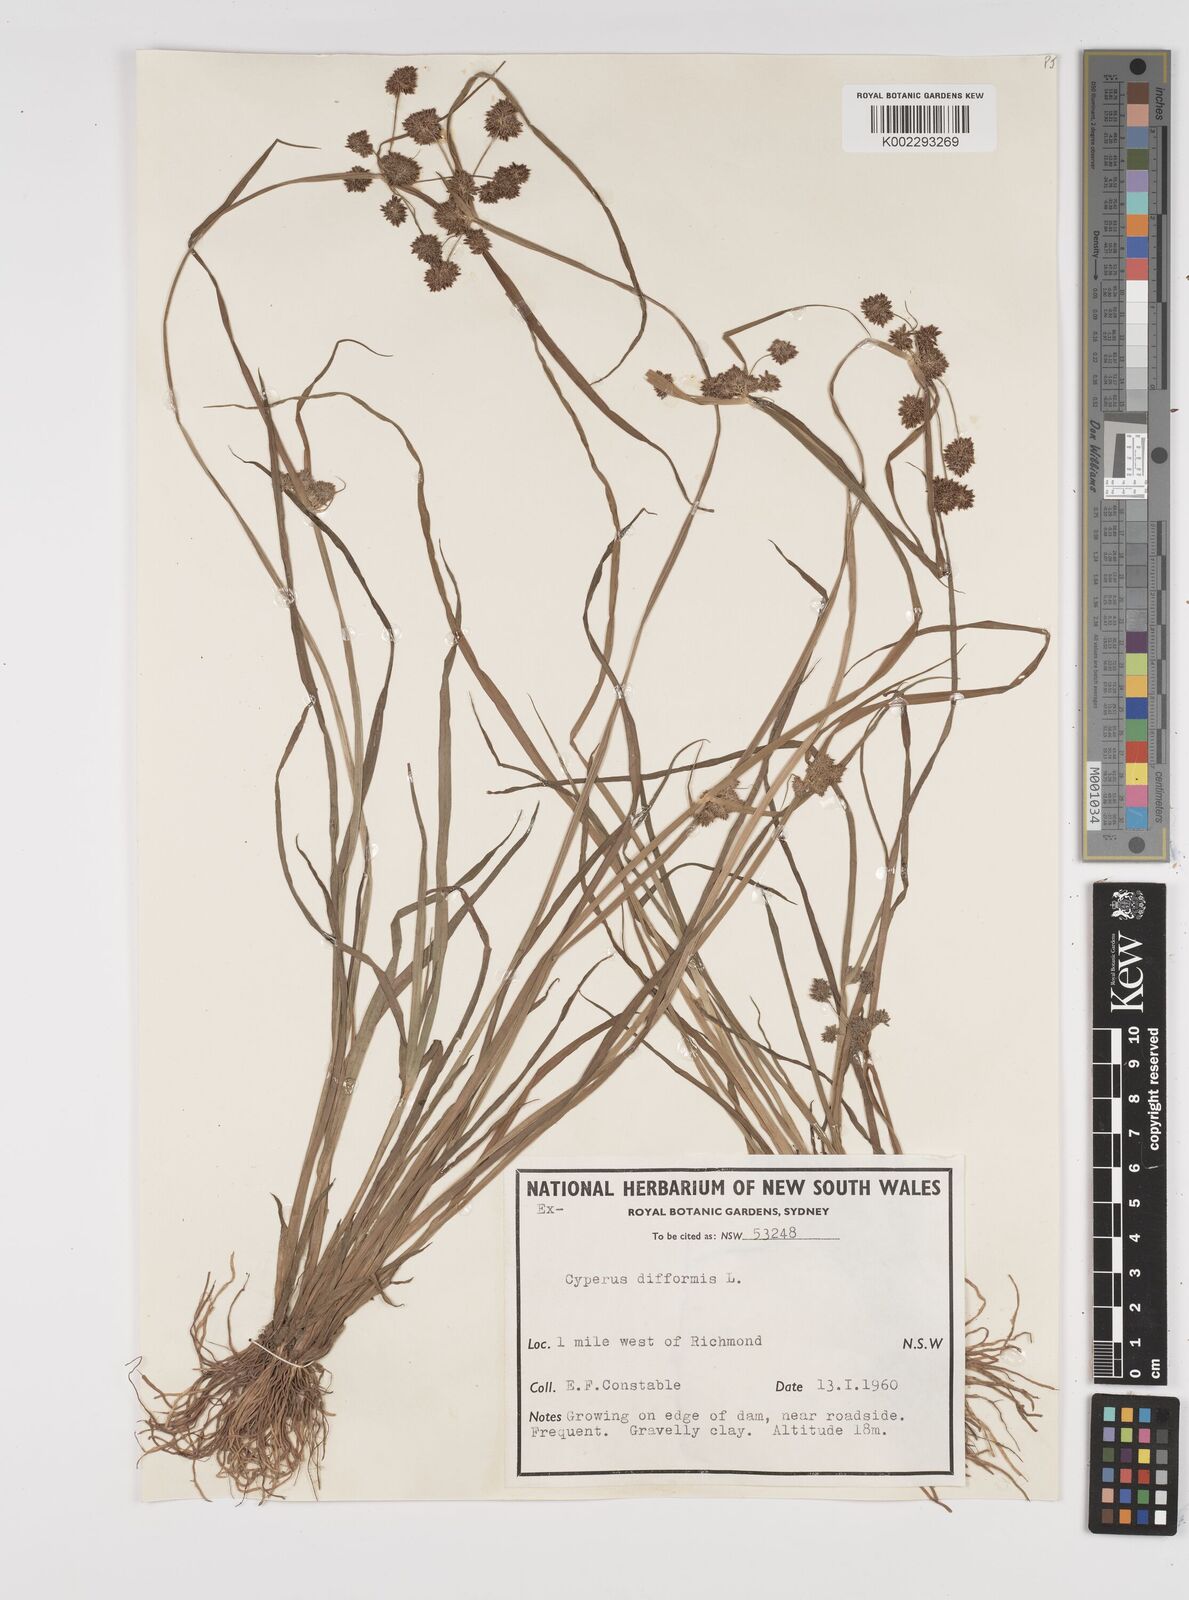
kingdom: Plantae
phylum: Tracheophyta
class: Liliopsida
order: Poales
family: Cyperaceae
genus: Cyperus
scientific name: Cyperus difformis
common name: Variable flatsedge
